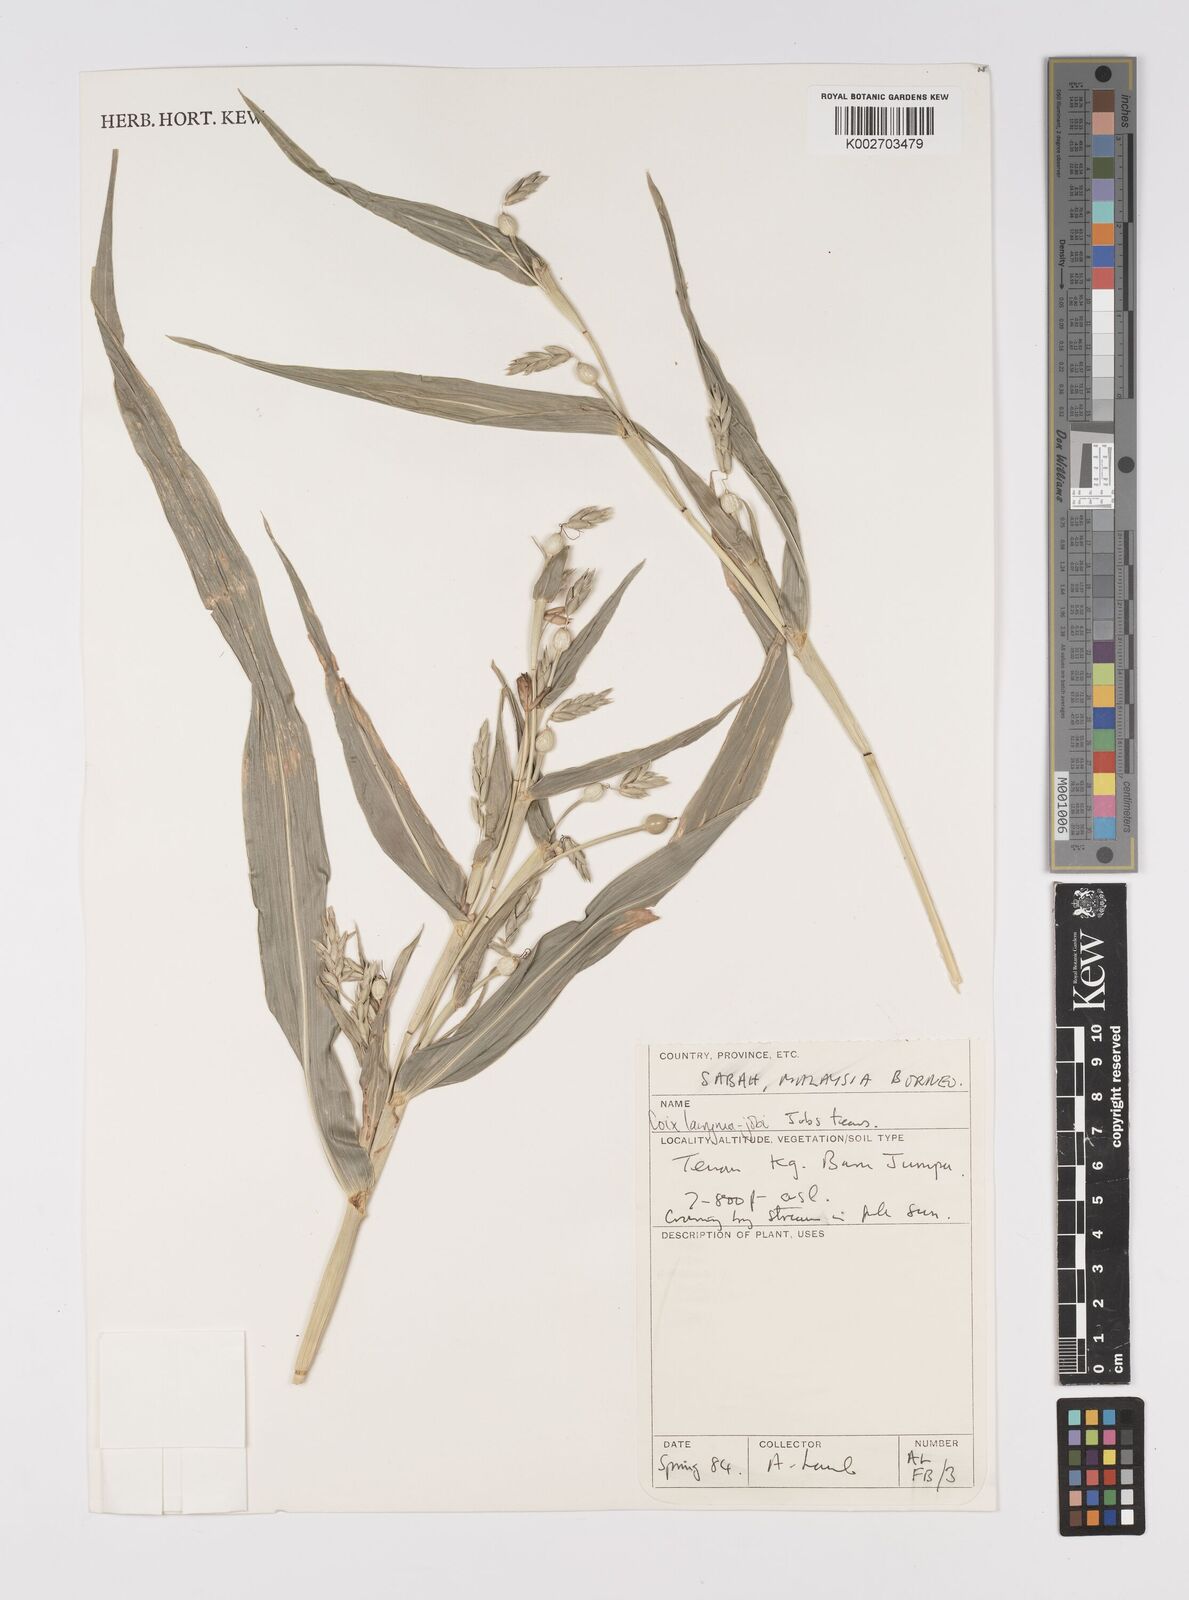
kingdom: Plantae
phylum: Tracheophyta
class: Liliopsida
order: Poales
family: Poaceae
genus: Coix
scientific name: Coix lacryma-jobi
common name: Job's tears
